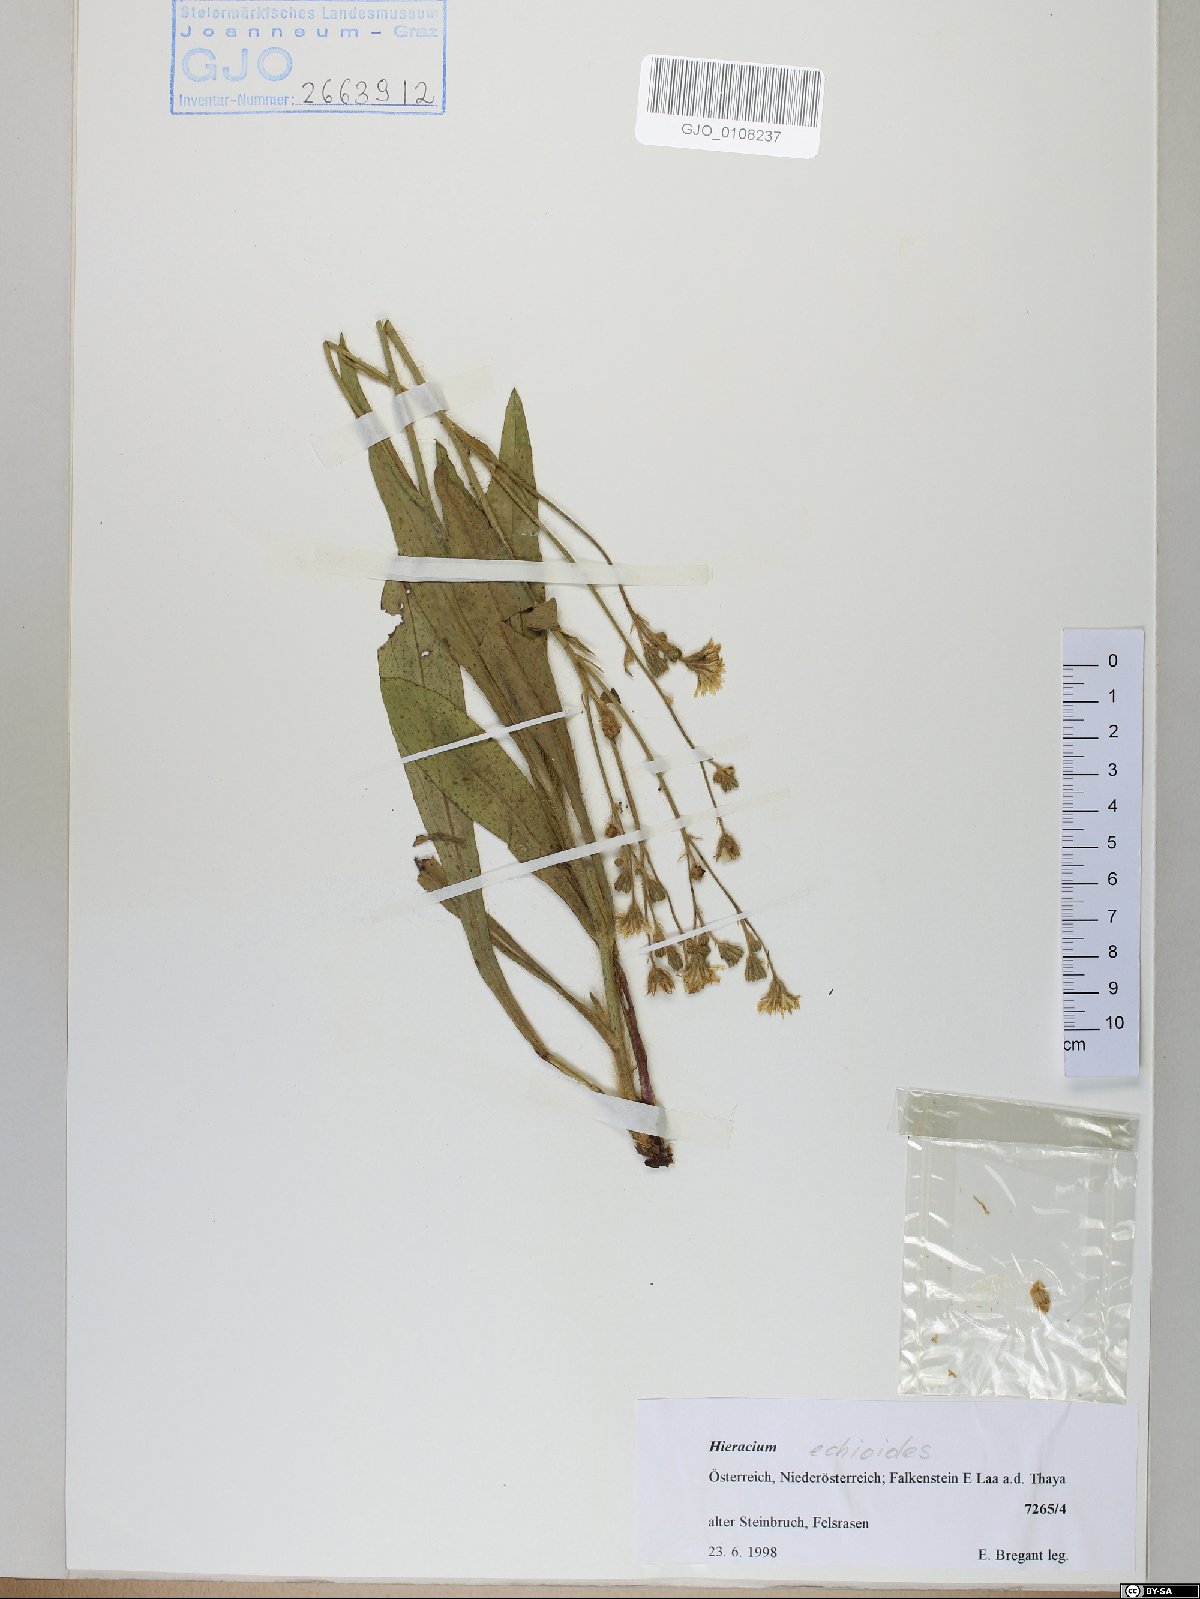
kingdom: Plantae
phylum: Tracheophyta
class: Magnoliopsida
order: Asterales
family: Asteraceae
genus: Pilosella
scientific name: Pilosella echioides
